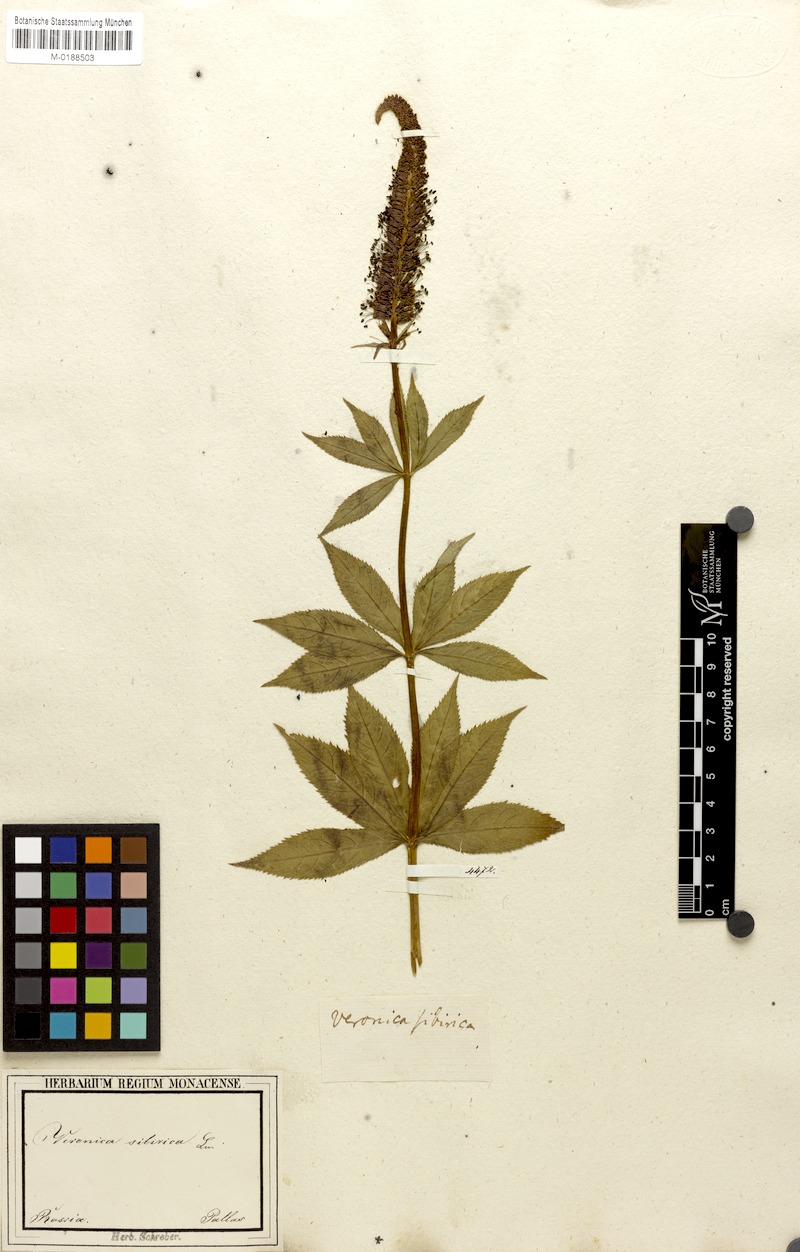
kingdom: Plantae
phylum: Tracheophyta
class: Magnoliopsida
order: Lamiales
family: Plantaginaceae
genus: Veronicastrum
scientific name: Veronicastrum sibiricum
